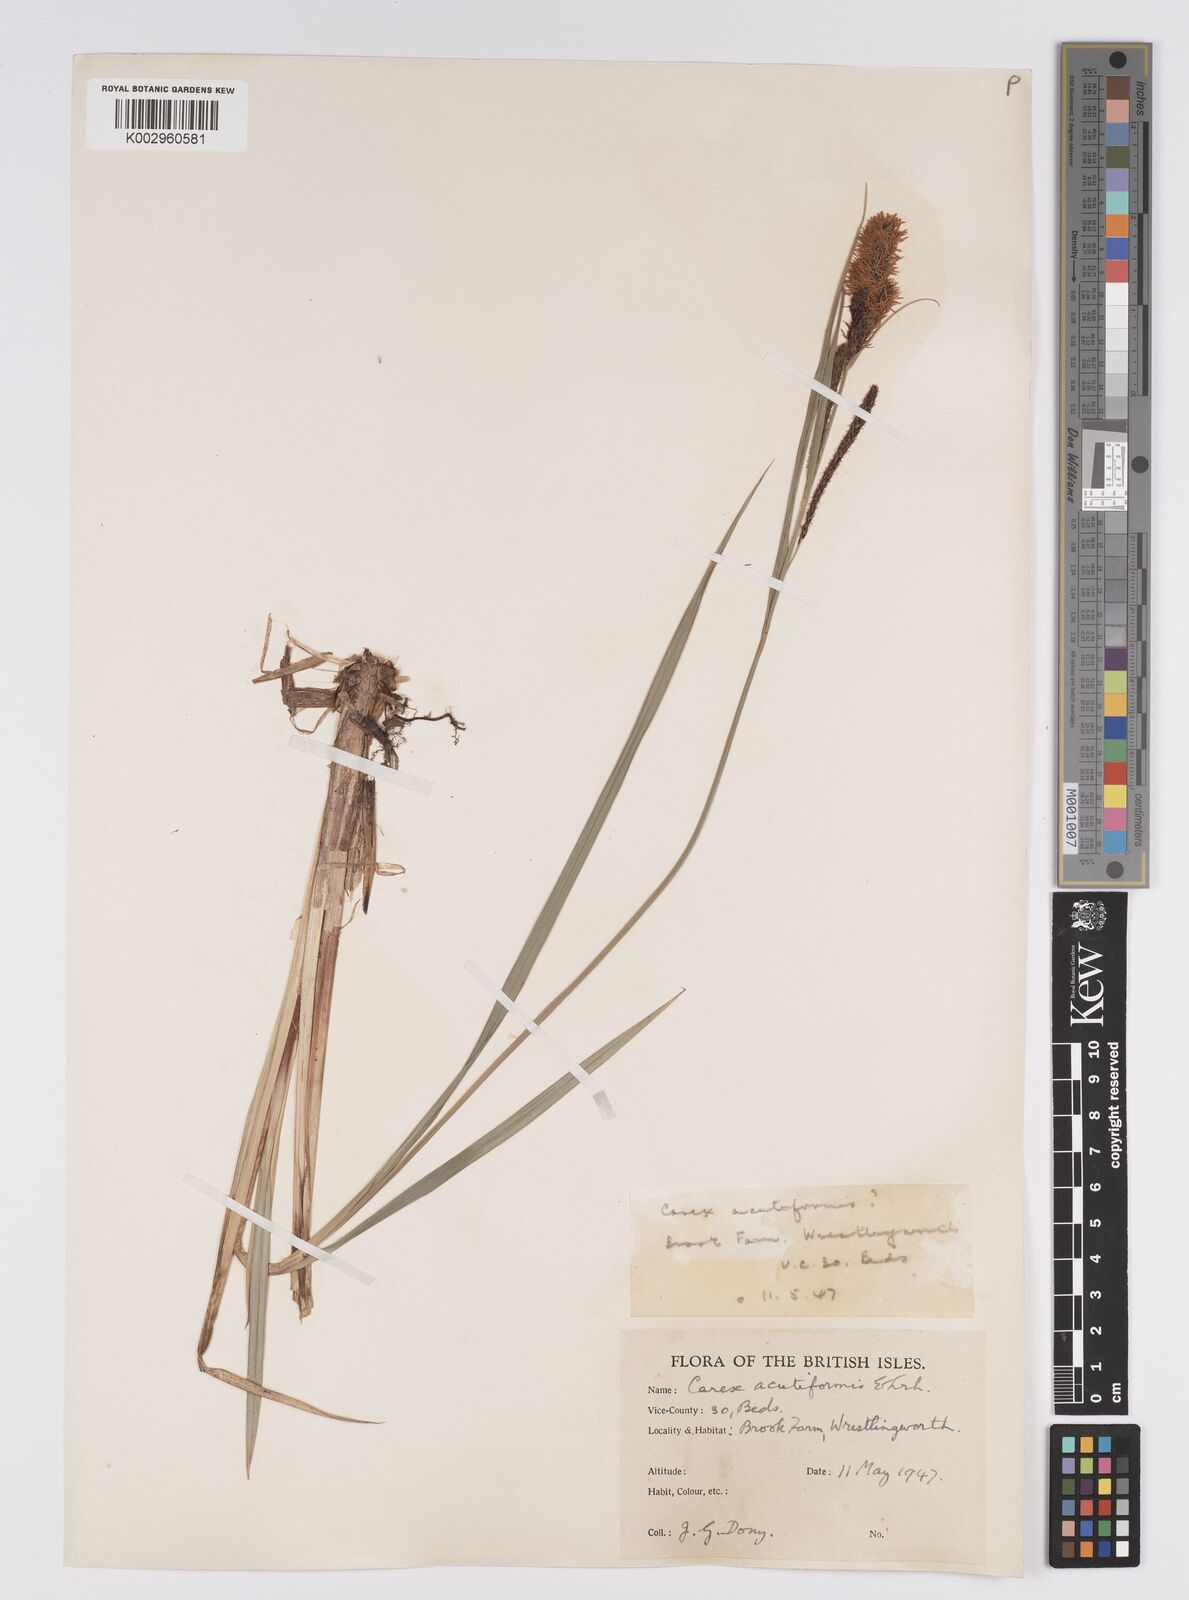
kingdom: Plantae
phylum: Tracheophyta
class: Liliopsida
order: Poales
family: Cyperaceae
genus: Carex
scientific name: Carex acutiformis
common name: Lesser pond-sedge
